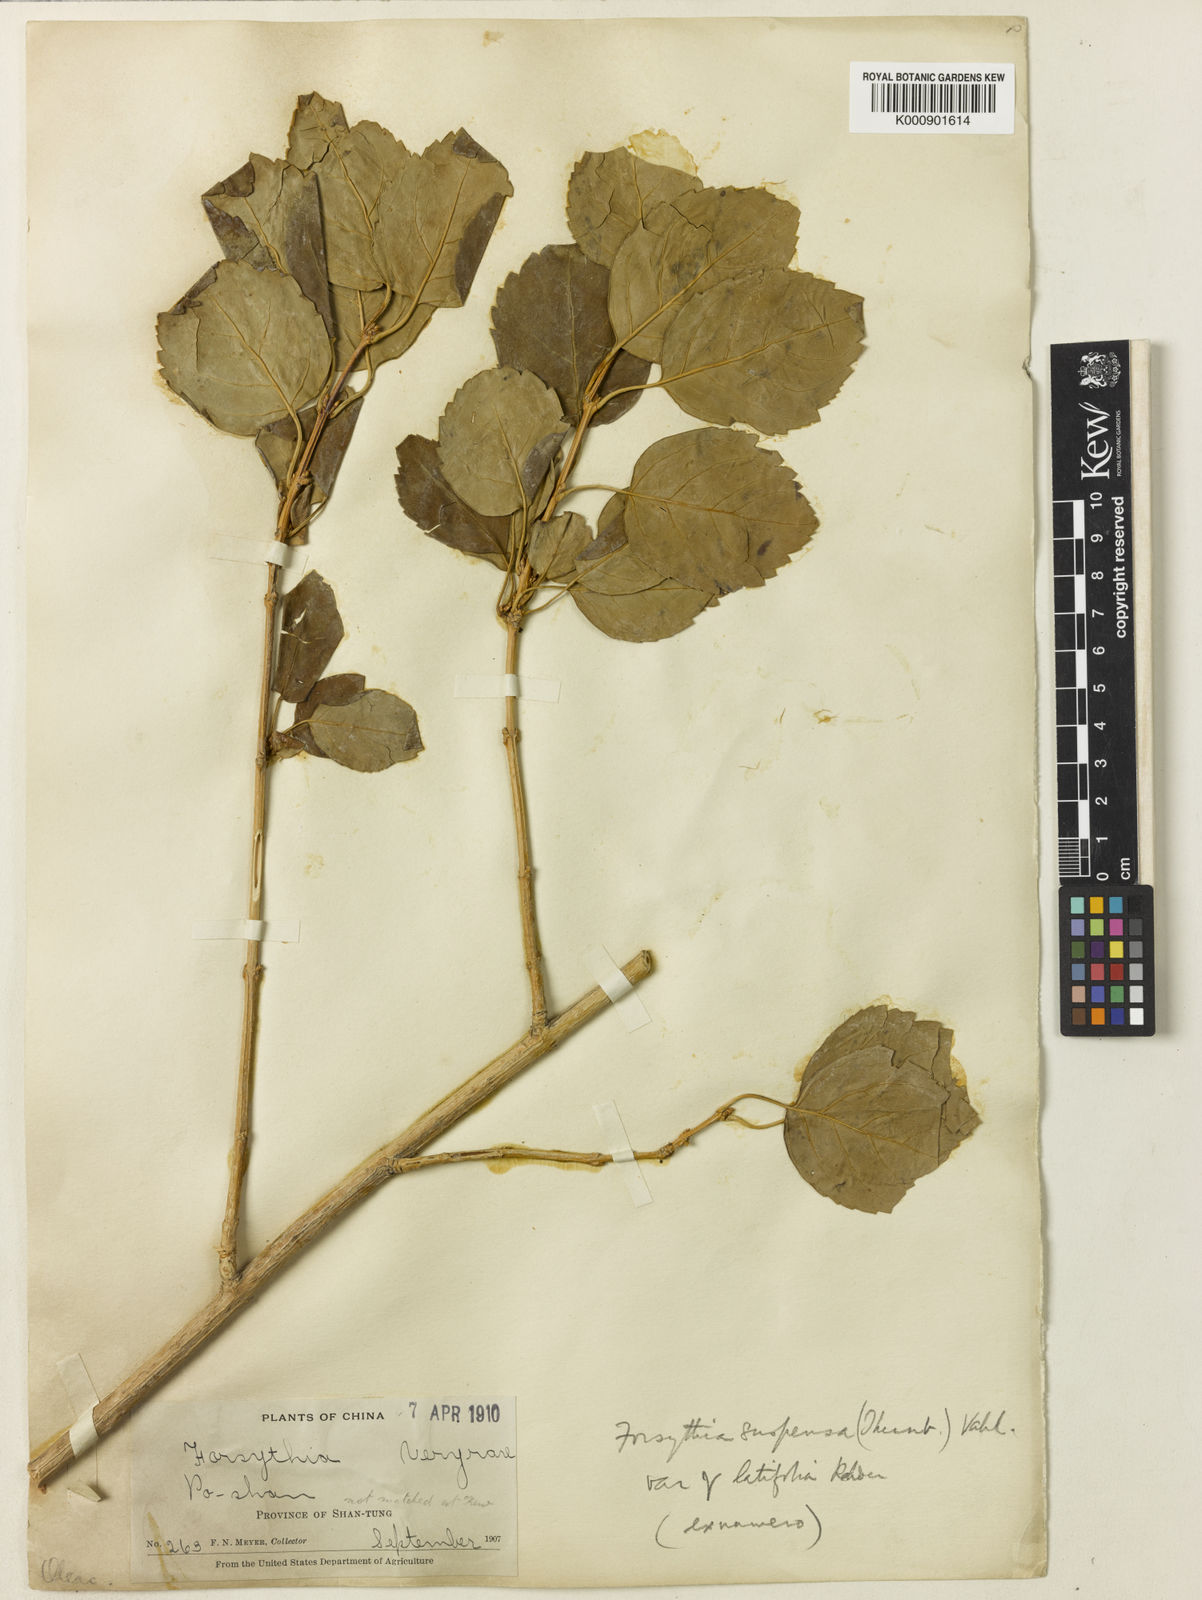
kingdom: Plantae
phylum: Tracheophyta
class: Magnoliopsida
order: Lamiales
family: Oleaceae
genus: Forsythia
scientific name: Forsythia suspensa
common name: Weeping forsythia
